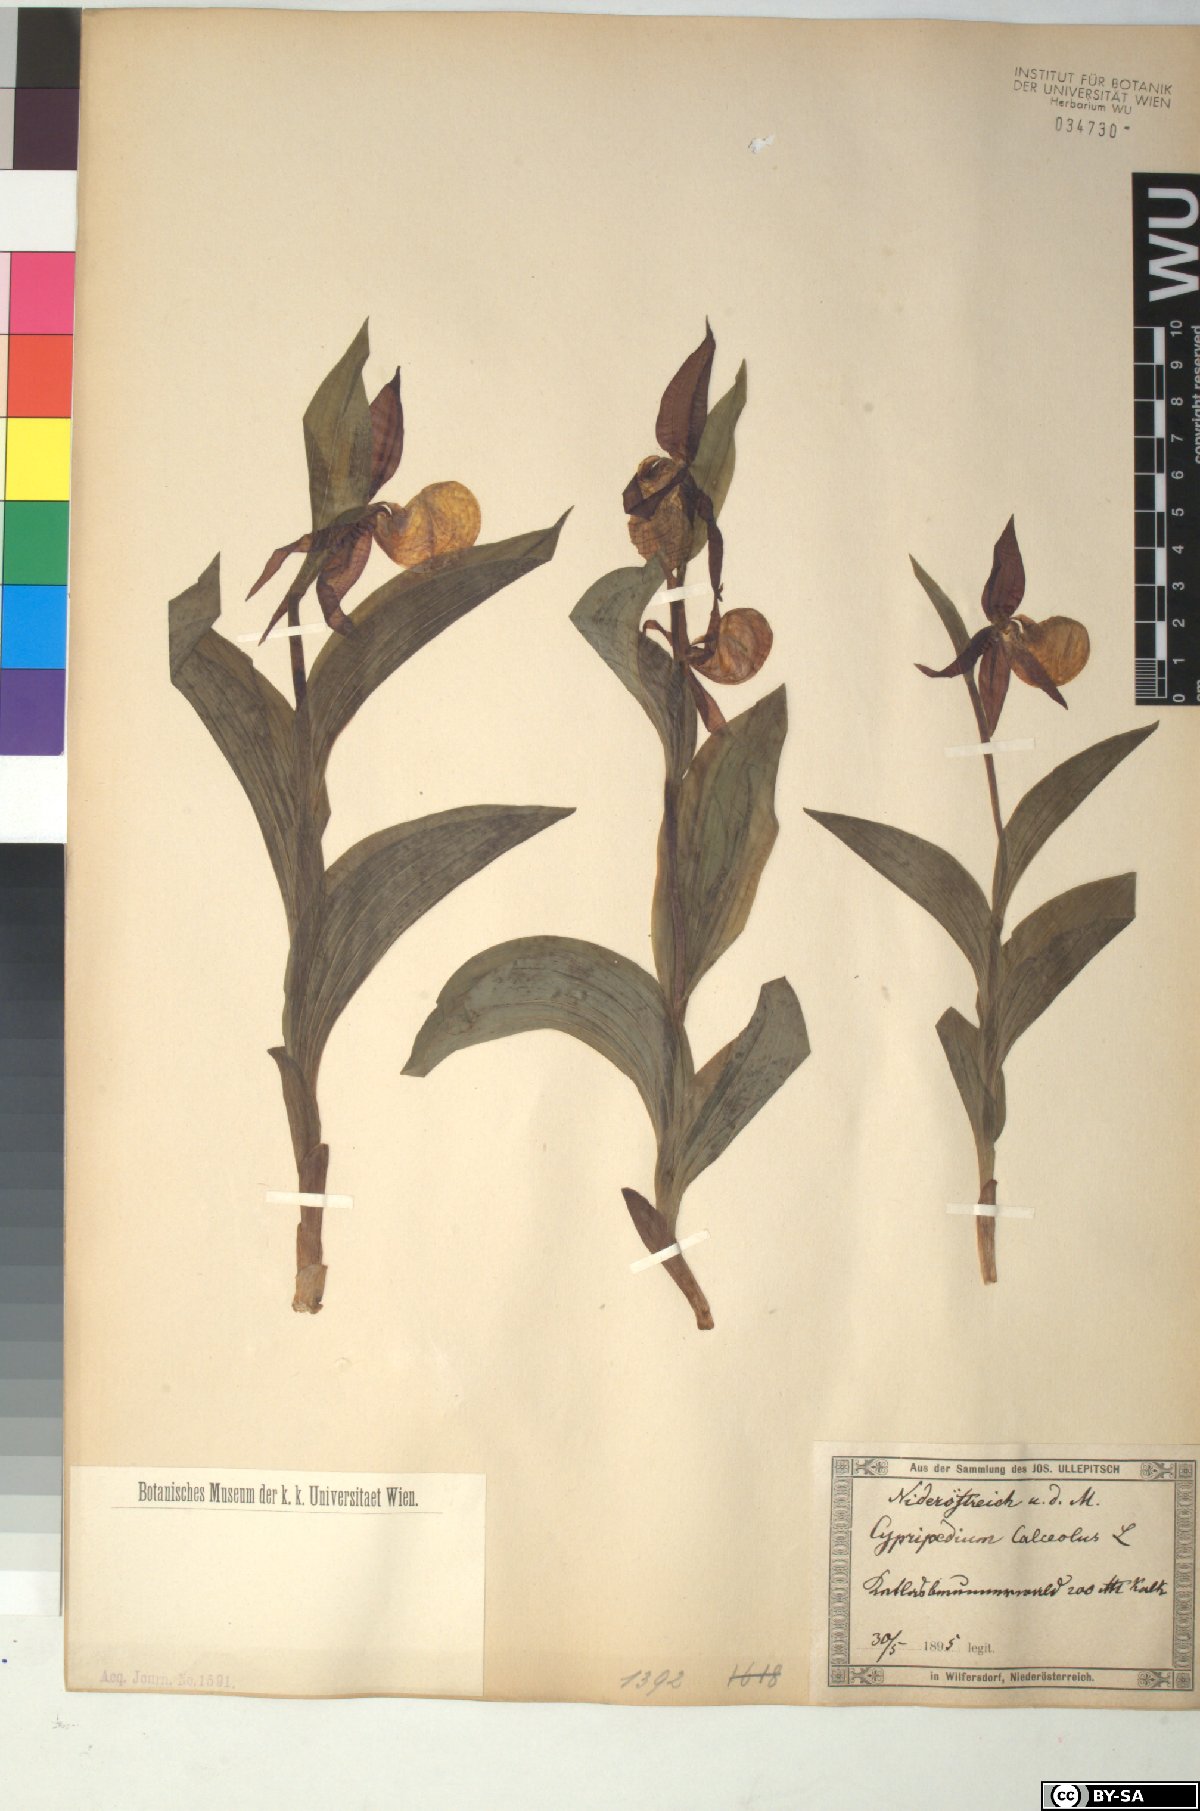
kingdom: Plantae
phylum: Tracheophyta
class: Liliopsida
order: Asparagales
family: Orchidaceae
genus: Cypripedium
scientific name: Cypripedium calceolus
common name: Lady's-slipper
